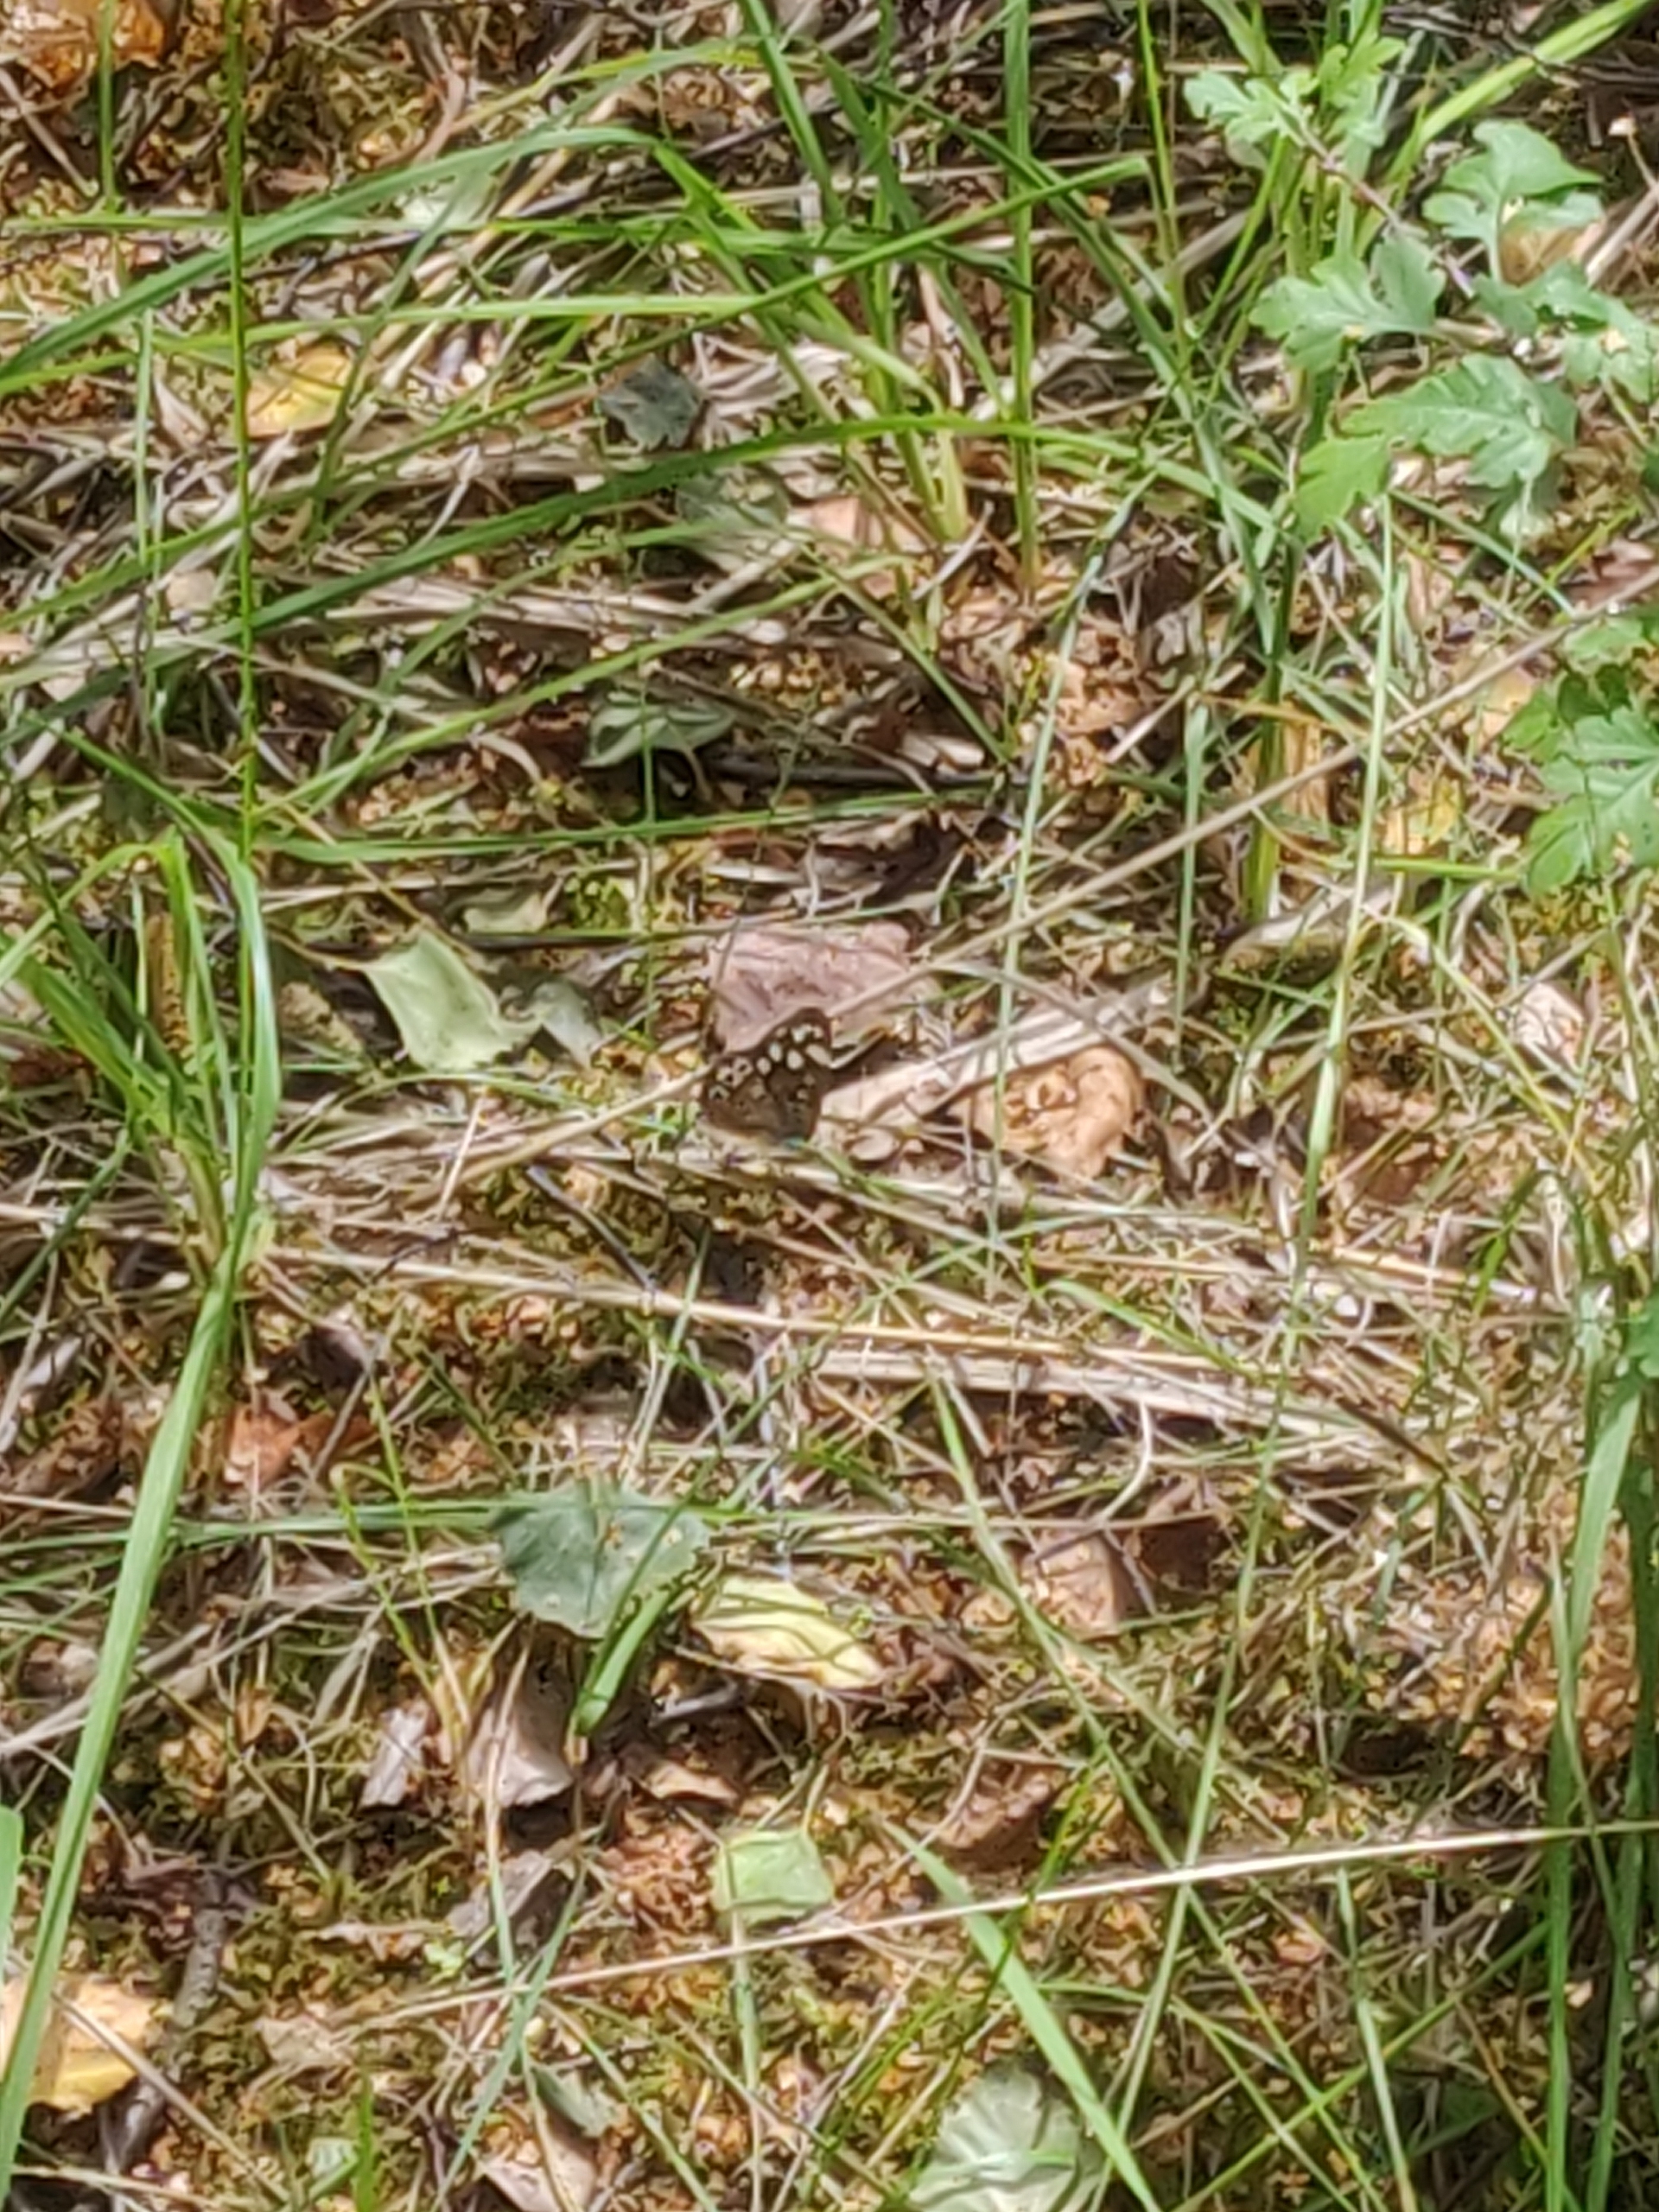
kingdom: Animalia
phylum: Arthropoda
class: Insecta
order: Lepidoptera
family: Nymphalidae
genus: Pararge
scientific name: Pararge aegeria
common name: Skovrandøje
